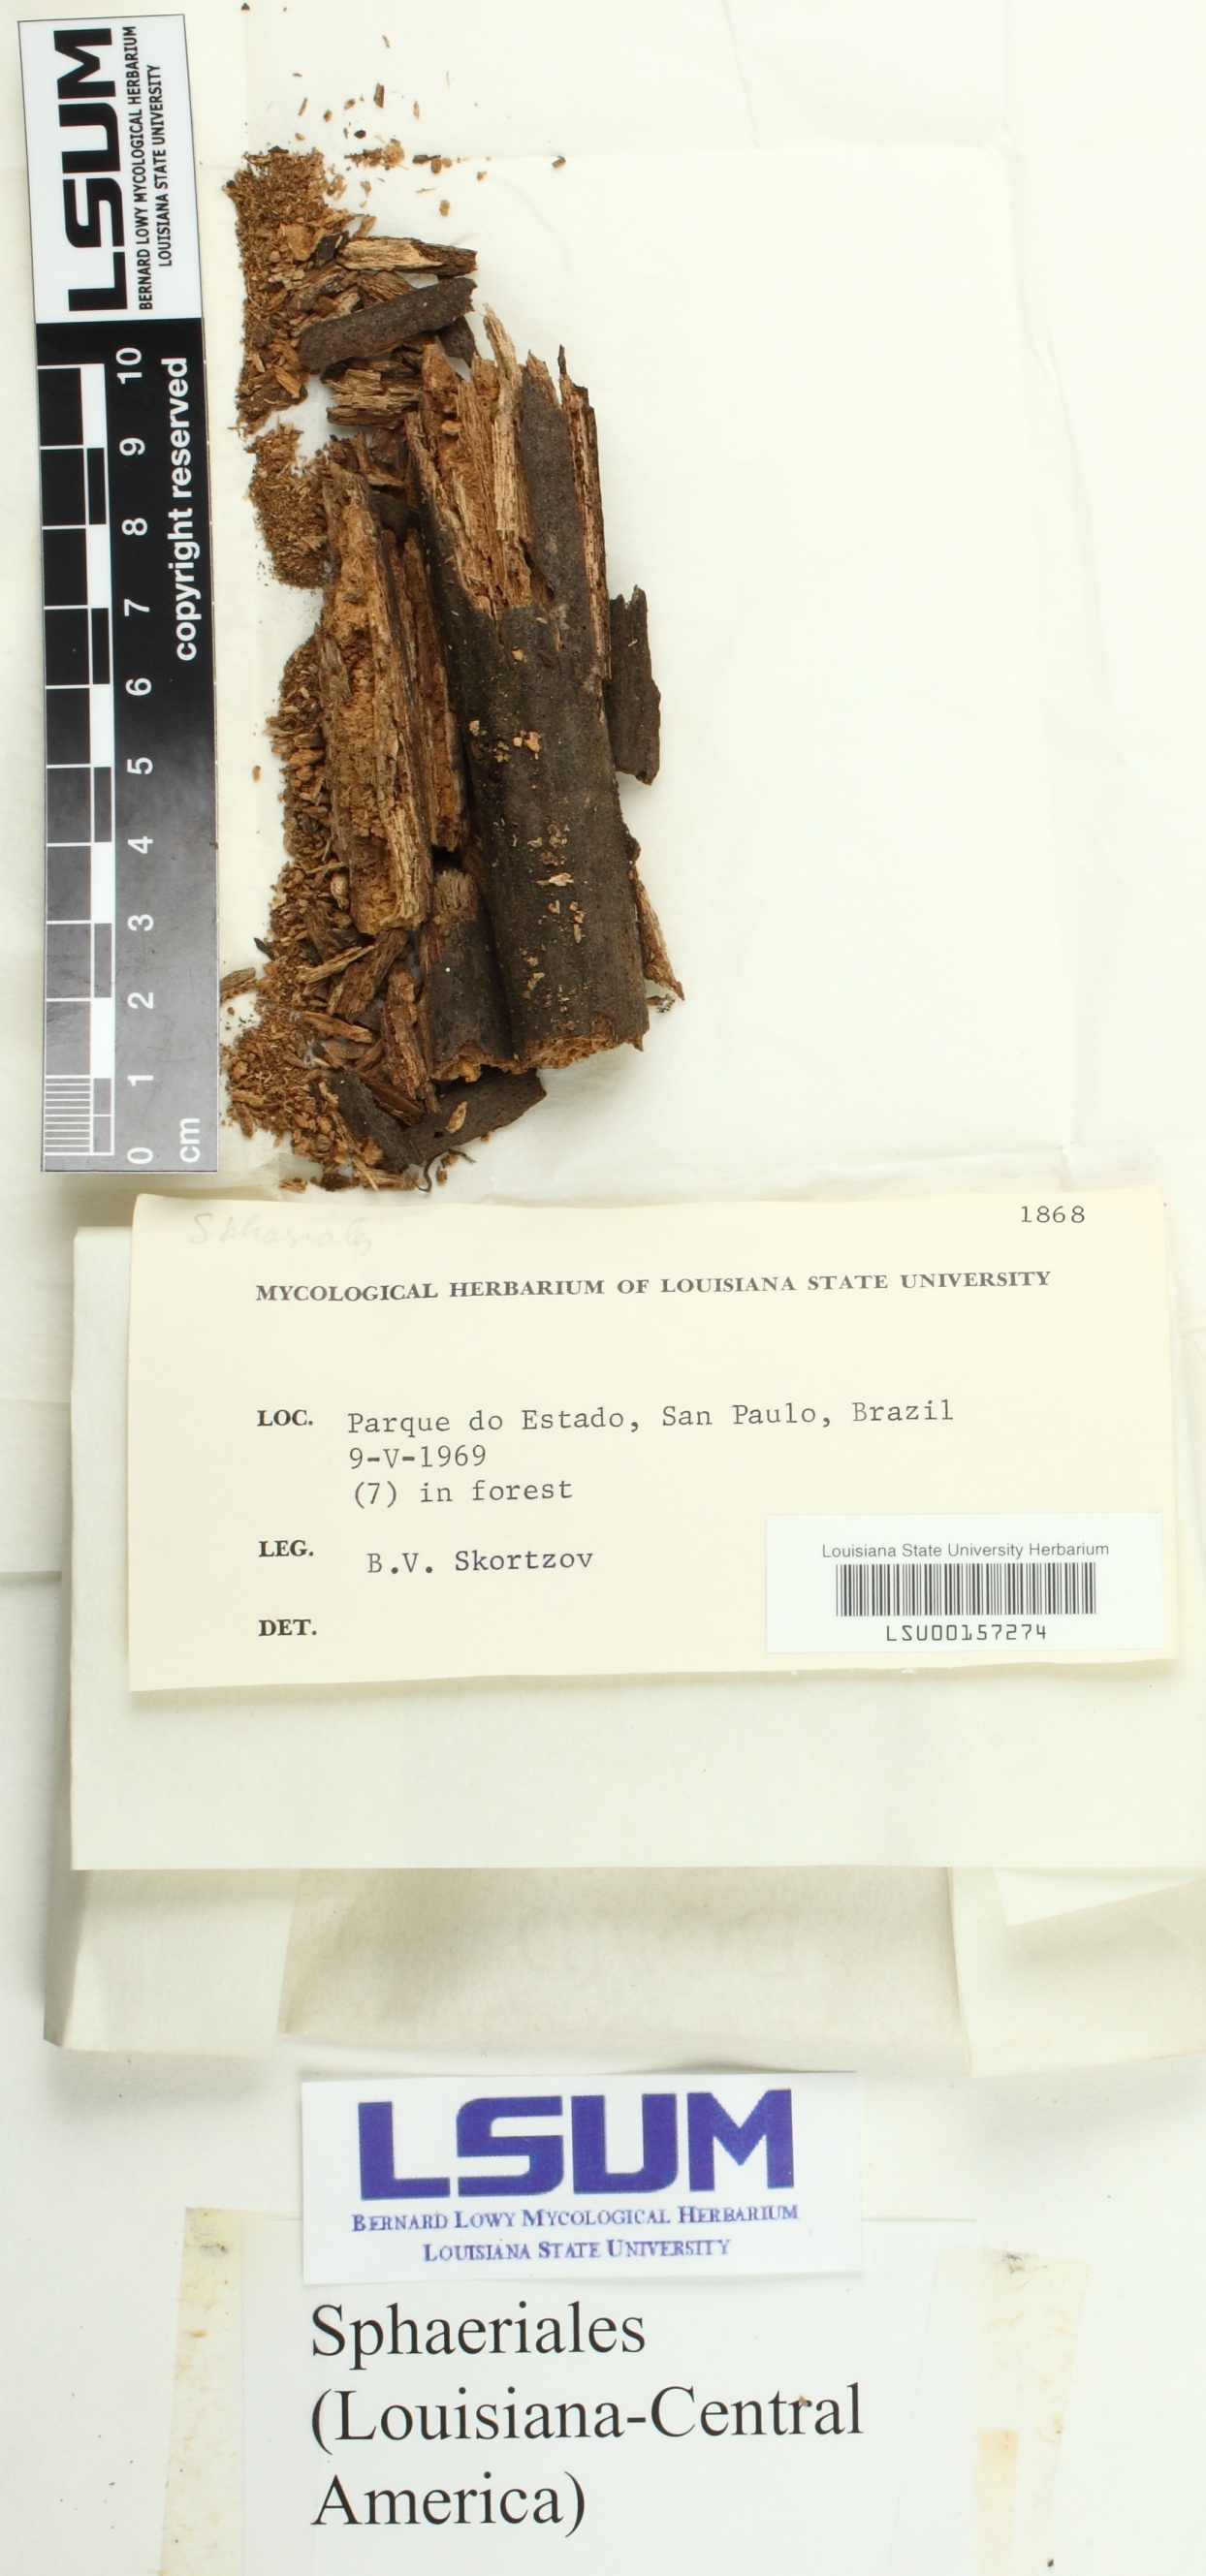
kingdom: Fungi
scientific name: Fungi
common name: Fungi
